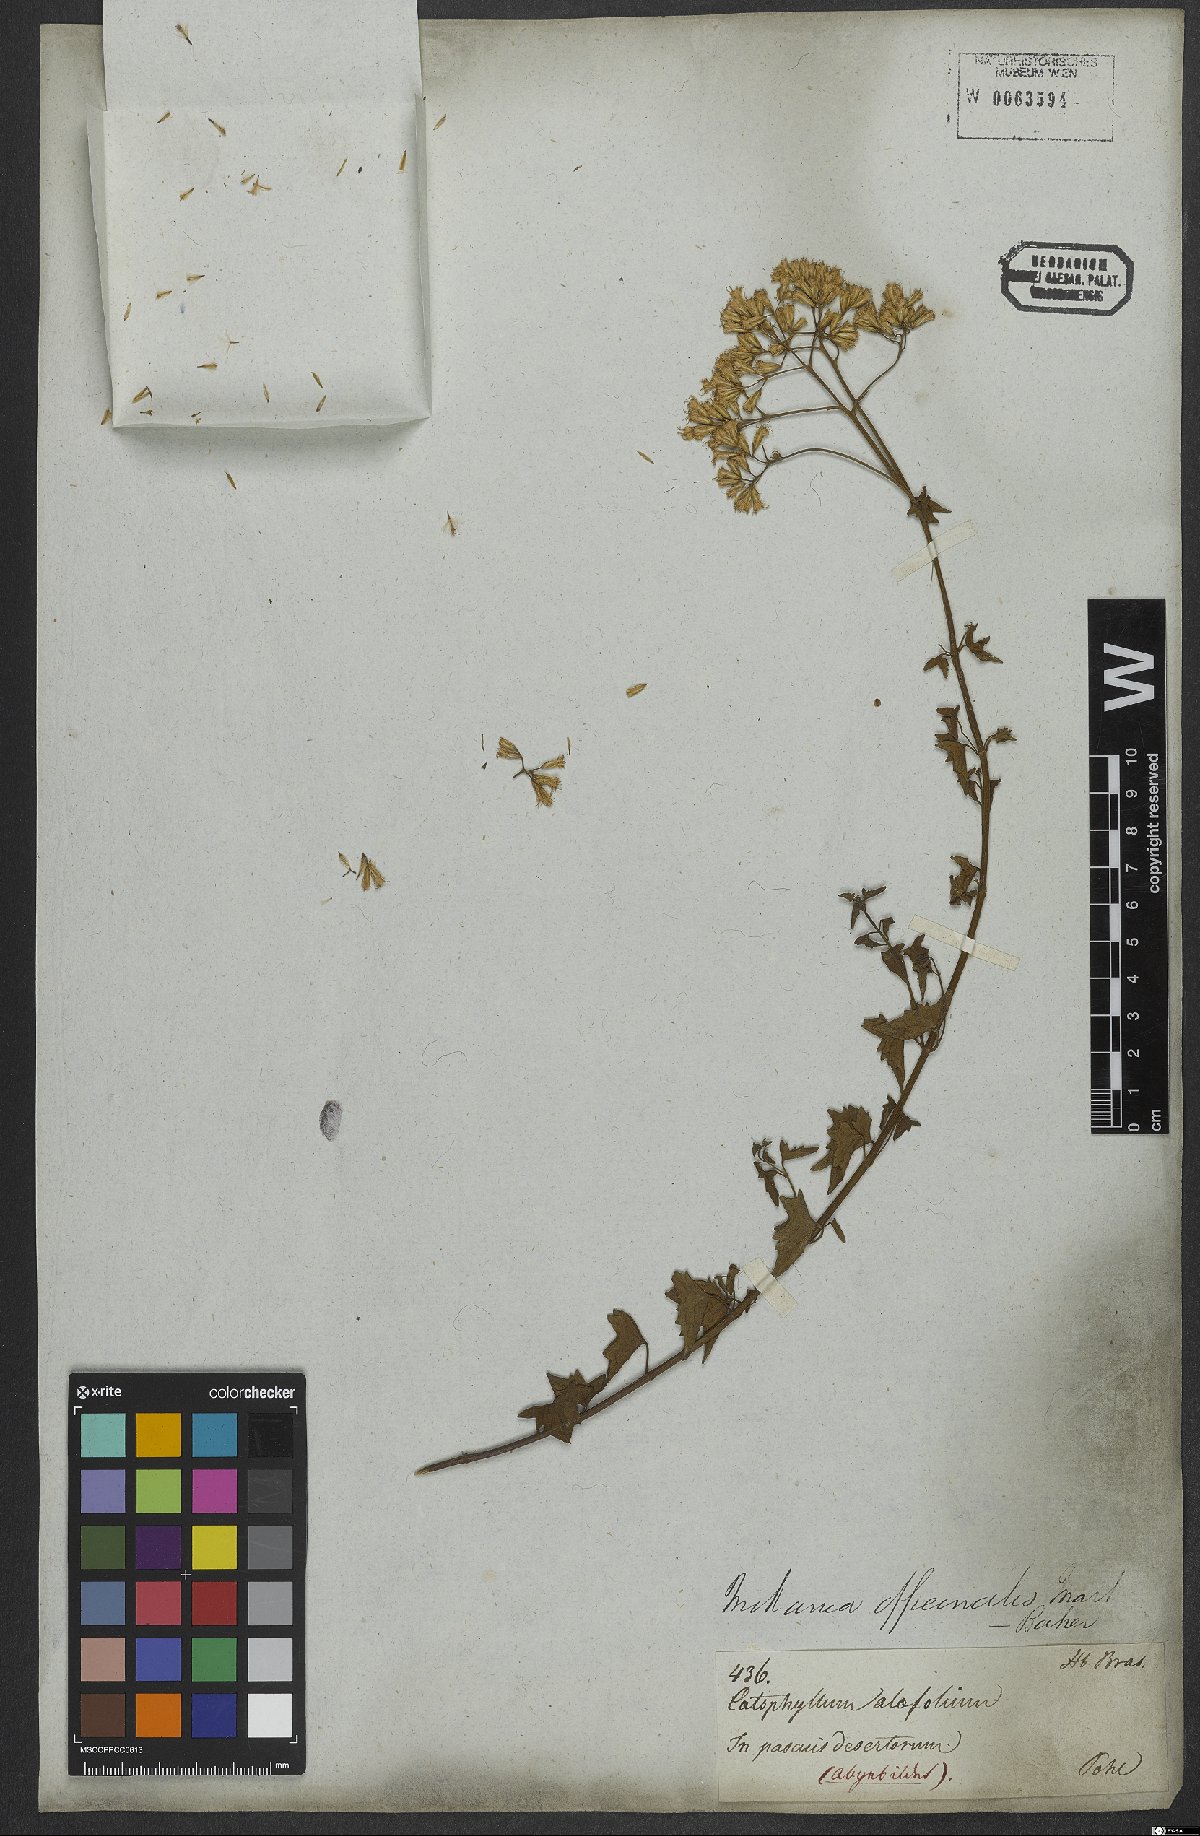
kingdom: Plantae
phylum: Tracheophyta
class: Magnoliopsida
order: Asterales
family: Asteraceae
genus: Mikania
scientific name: Mikania officinalis
